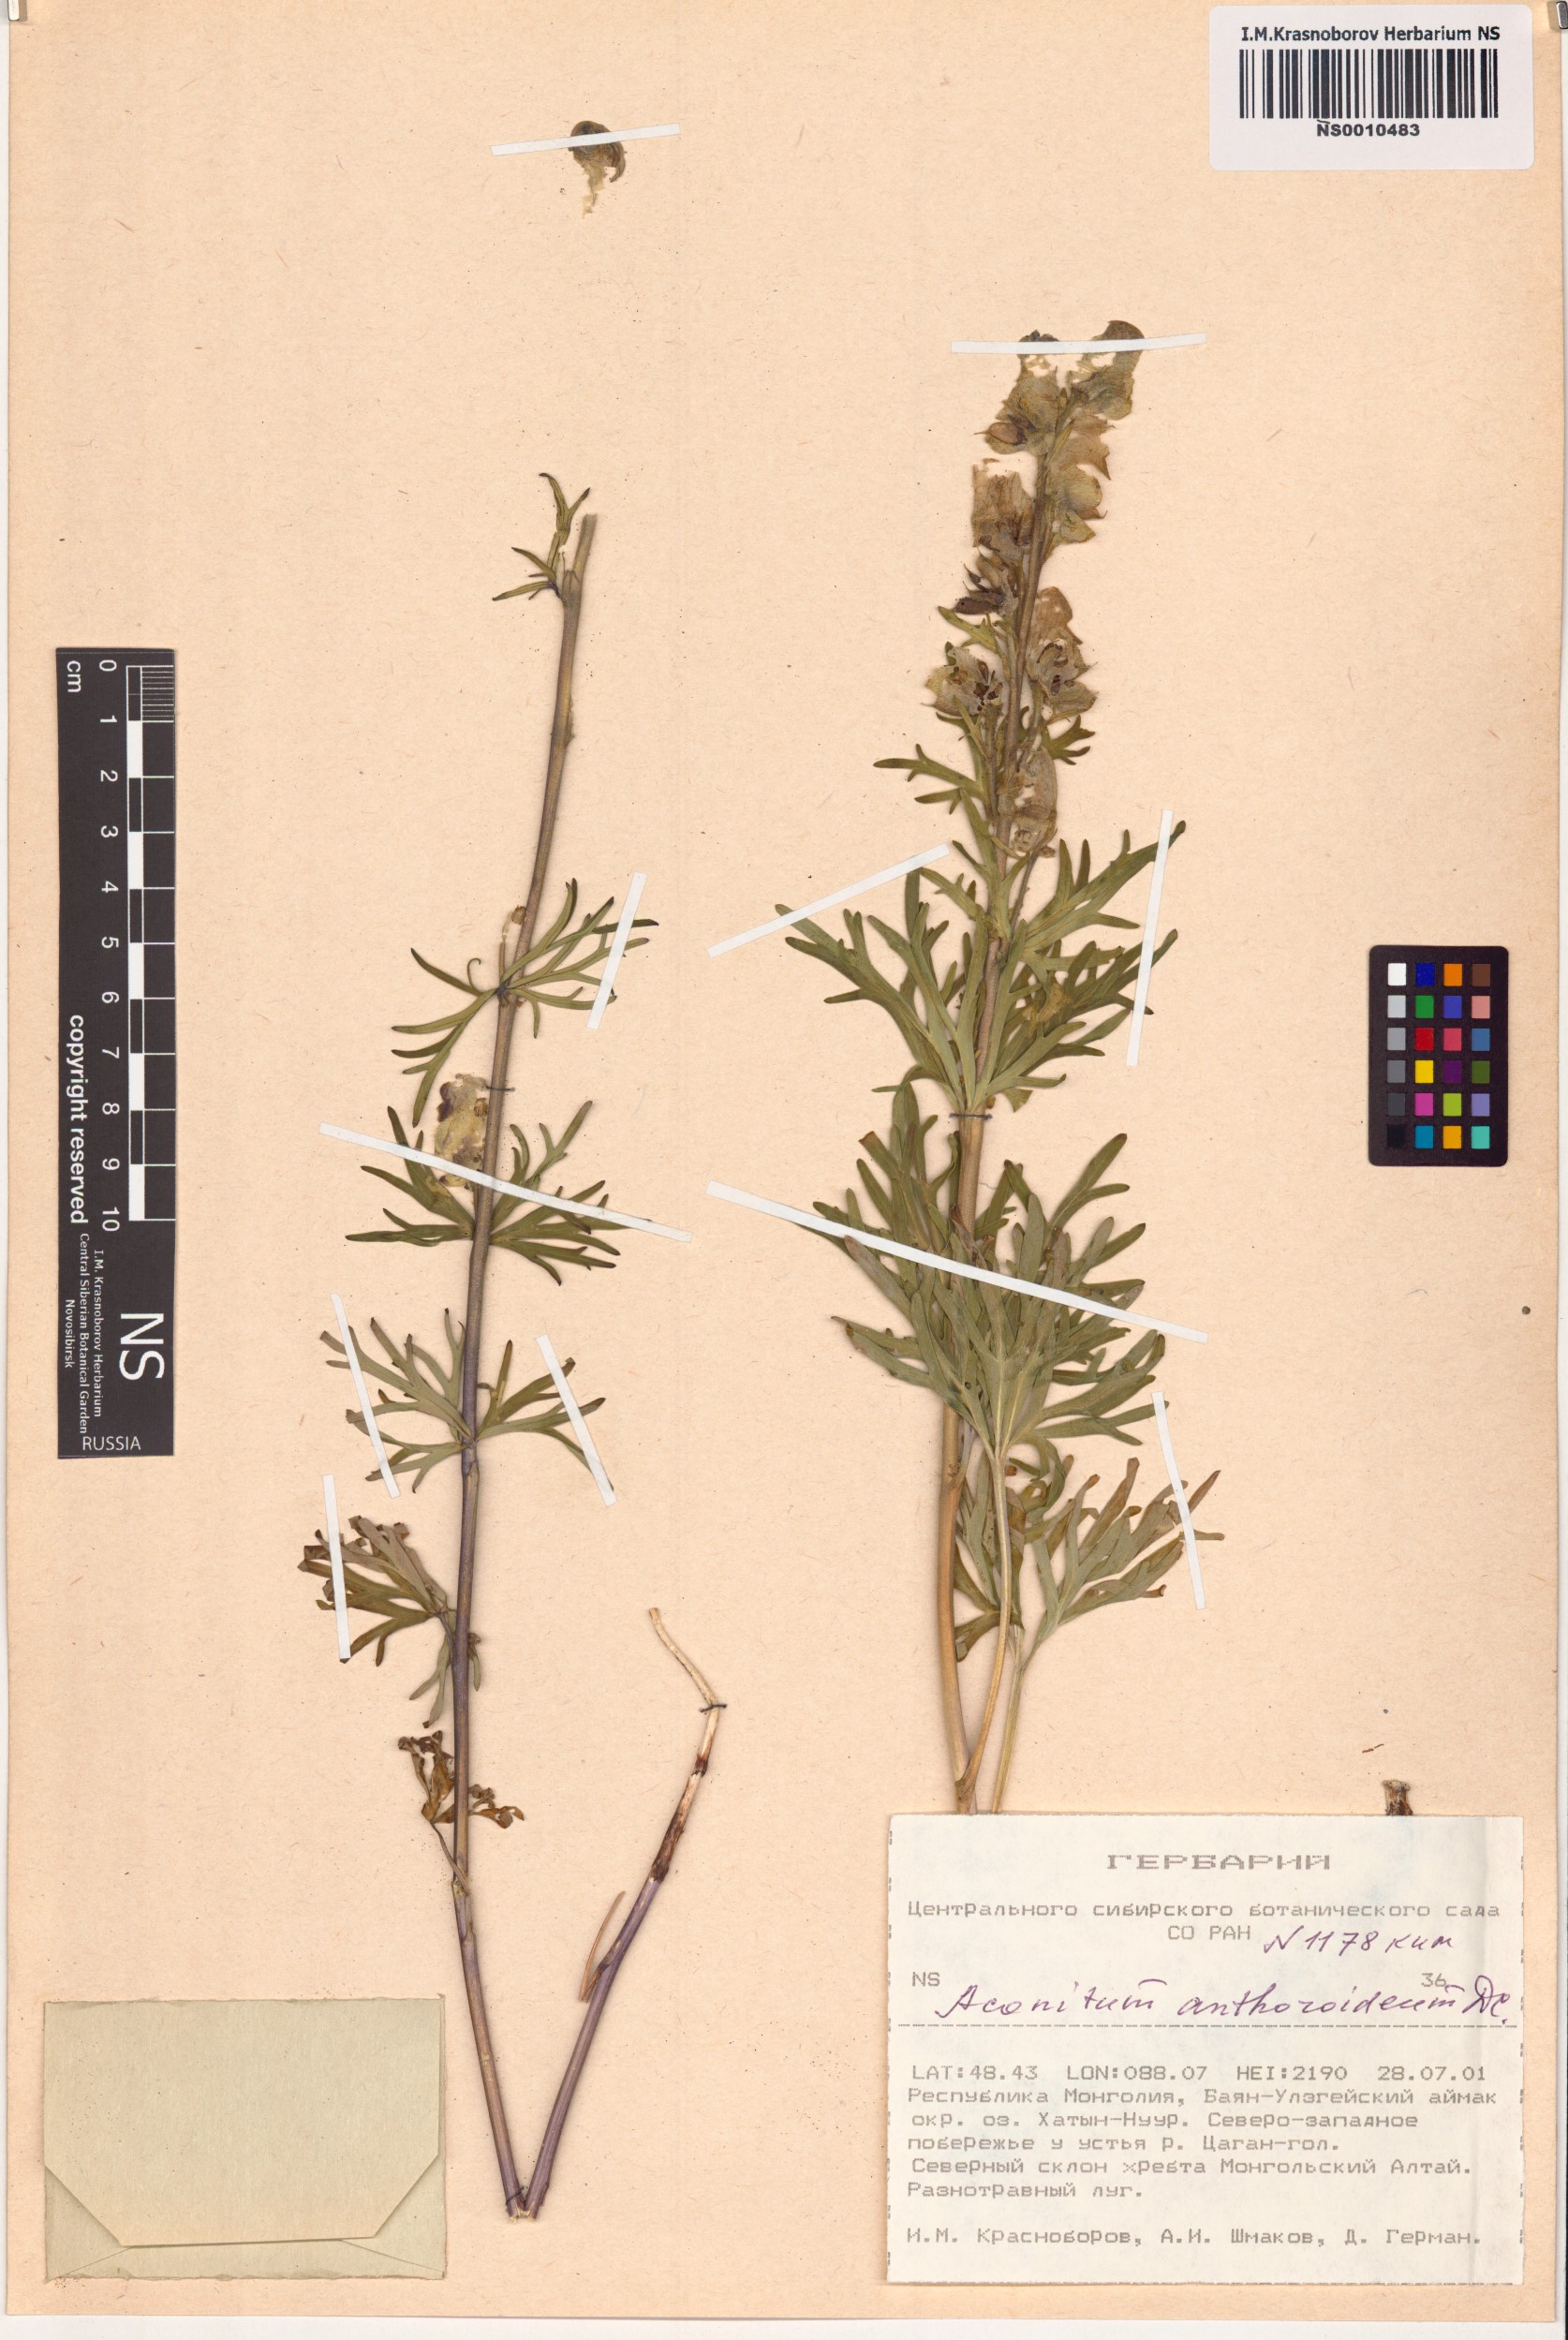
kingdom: Plantae
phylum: Tracheophyta
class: Magnoliopsida
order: Ranunculales
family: Ranunculaceae
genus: Aconitum
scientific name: Aconitum anthoroideum
